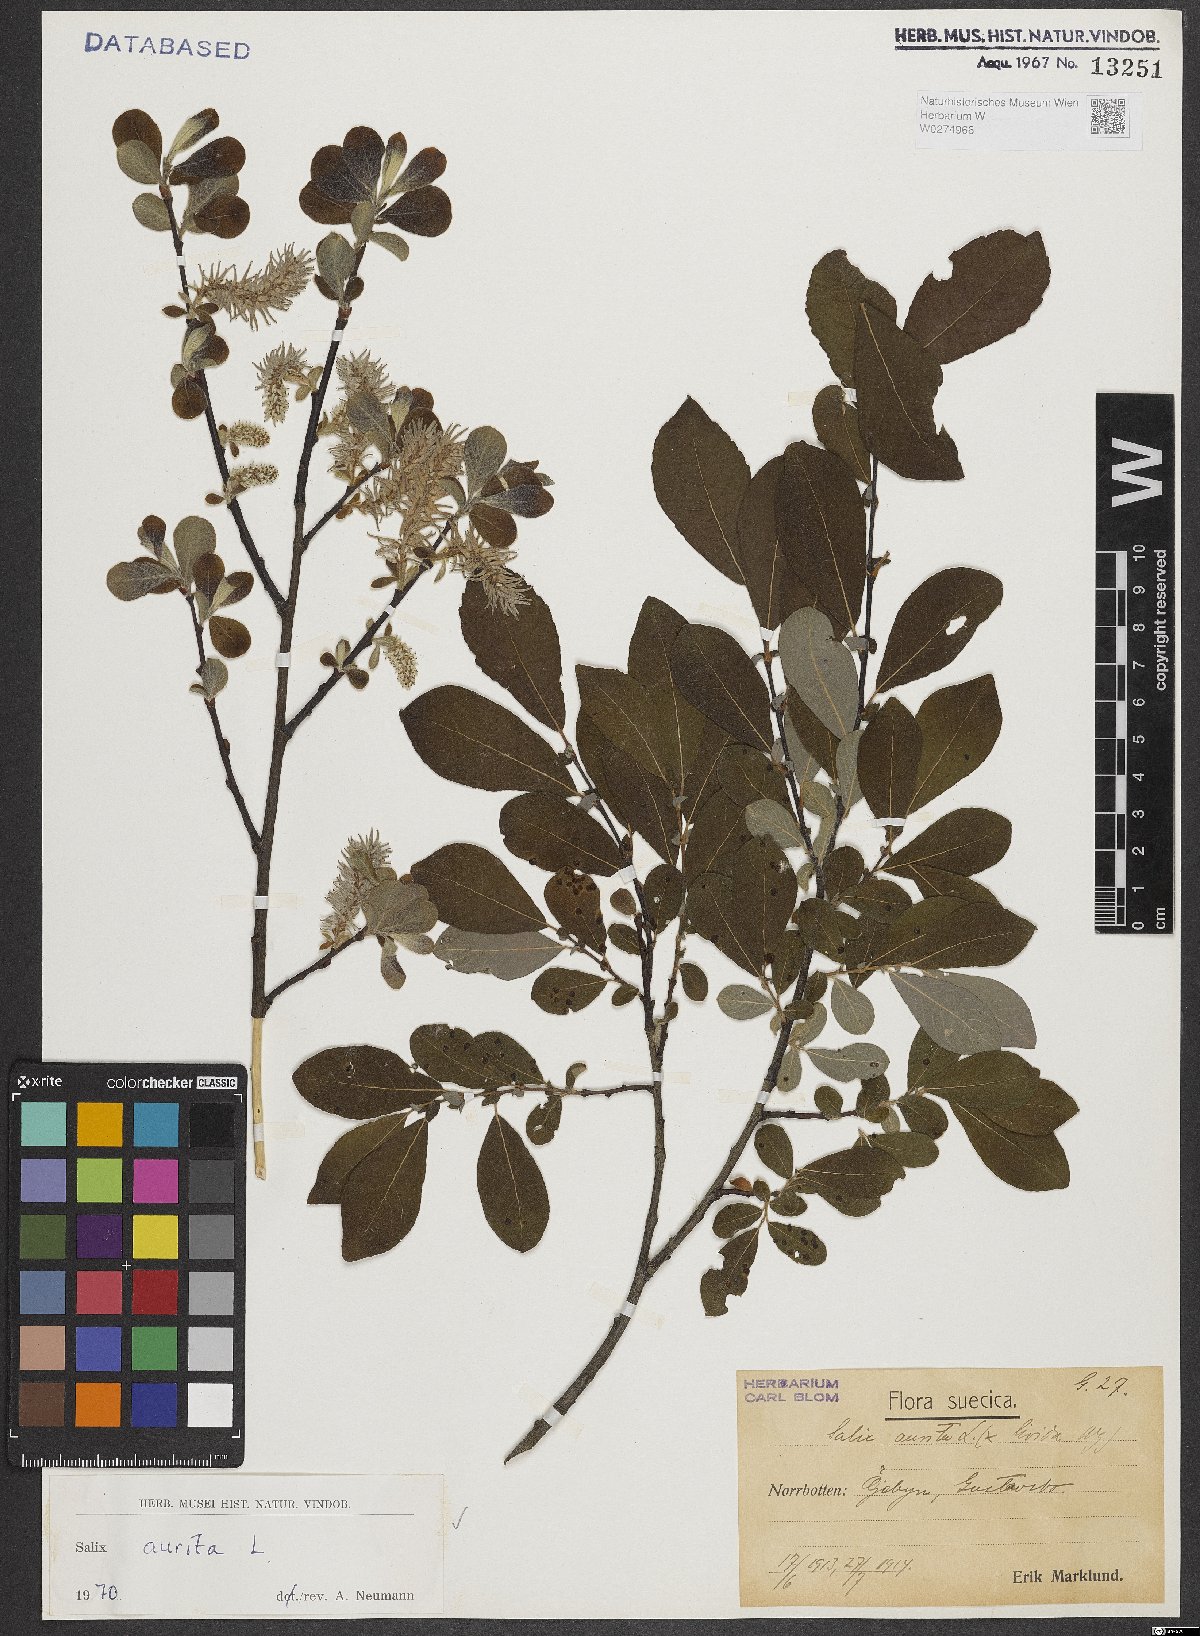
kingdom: Plantae
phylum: Tracheophyta
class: Magnoliopsida
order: Malpighiales
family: Salicaceae
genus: Salix
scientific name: Salix aurita
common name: Eared willow
